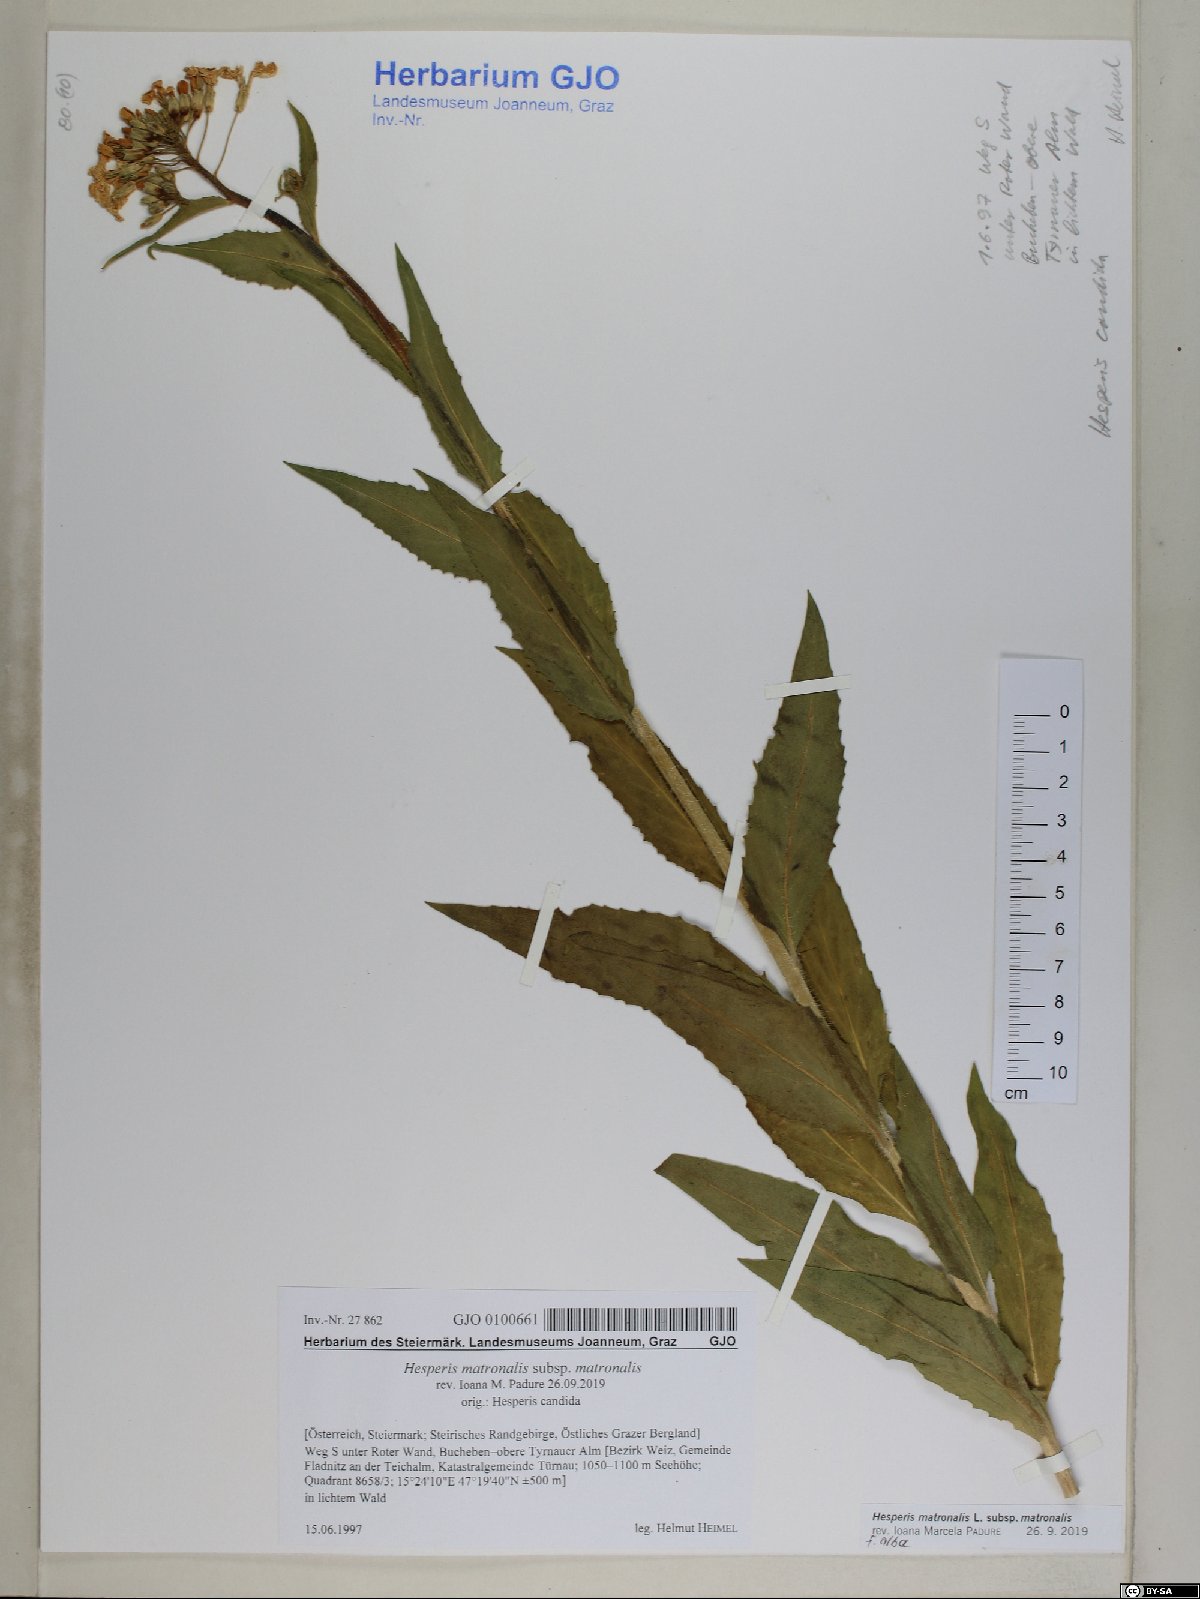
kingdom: Plantae
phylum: Tracheophyta
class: Magnoliopsida
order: Brassicales
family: Brassicaceae
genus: Hesperis
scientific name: Hesperis matronalis
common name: Dame's-violet
